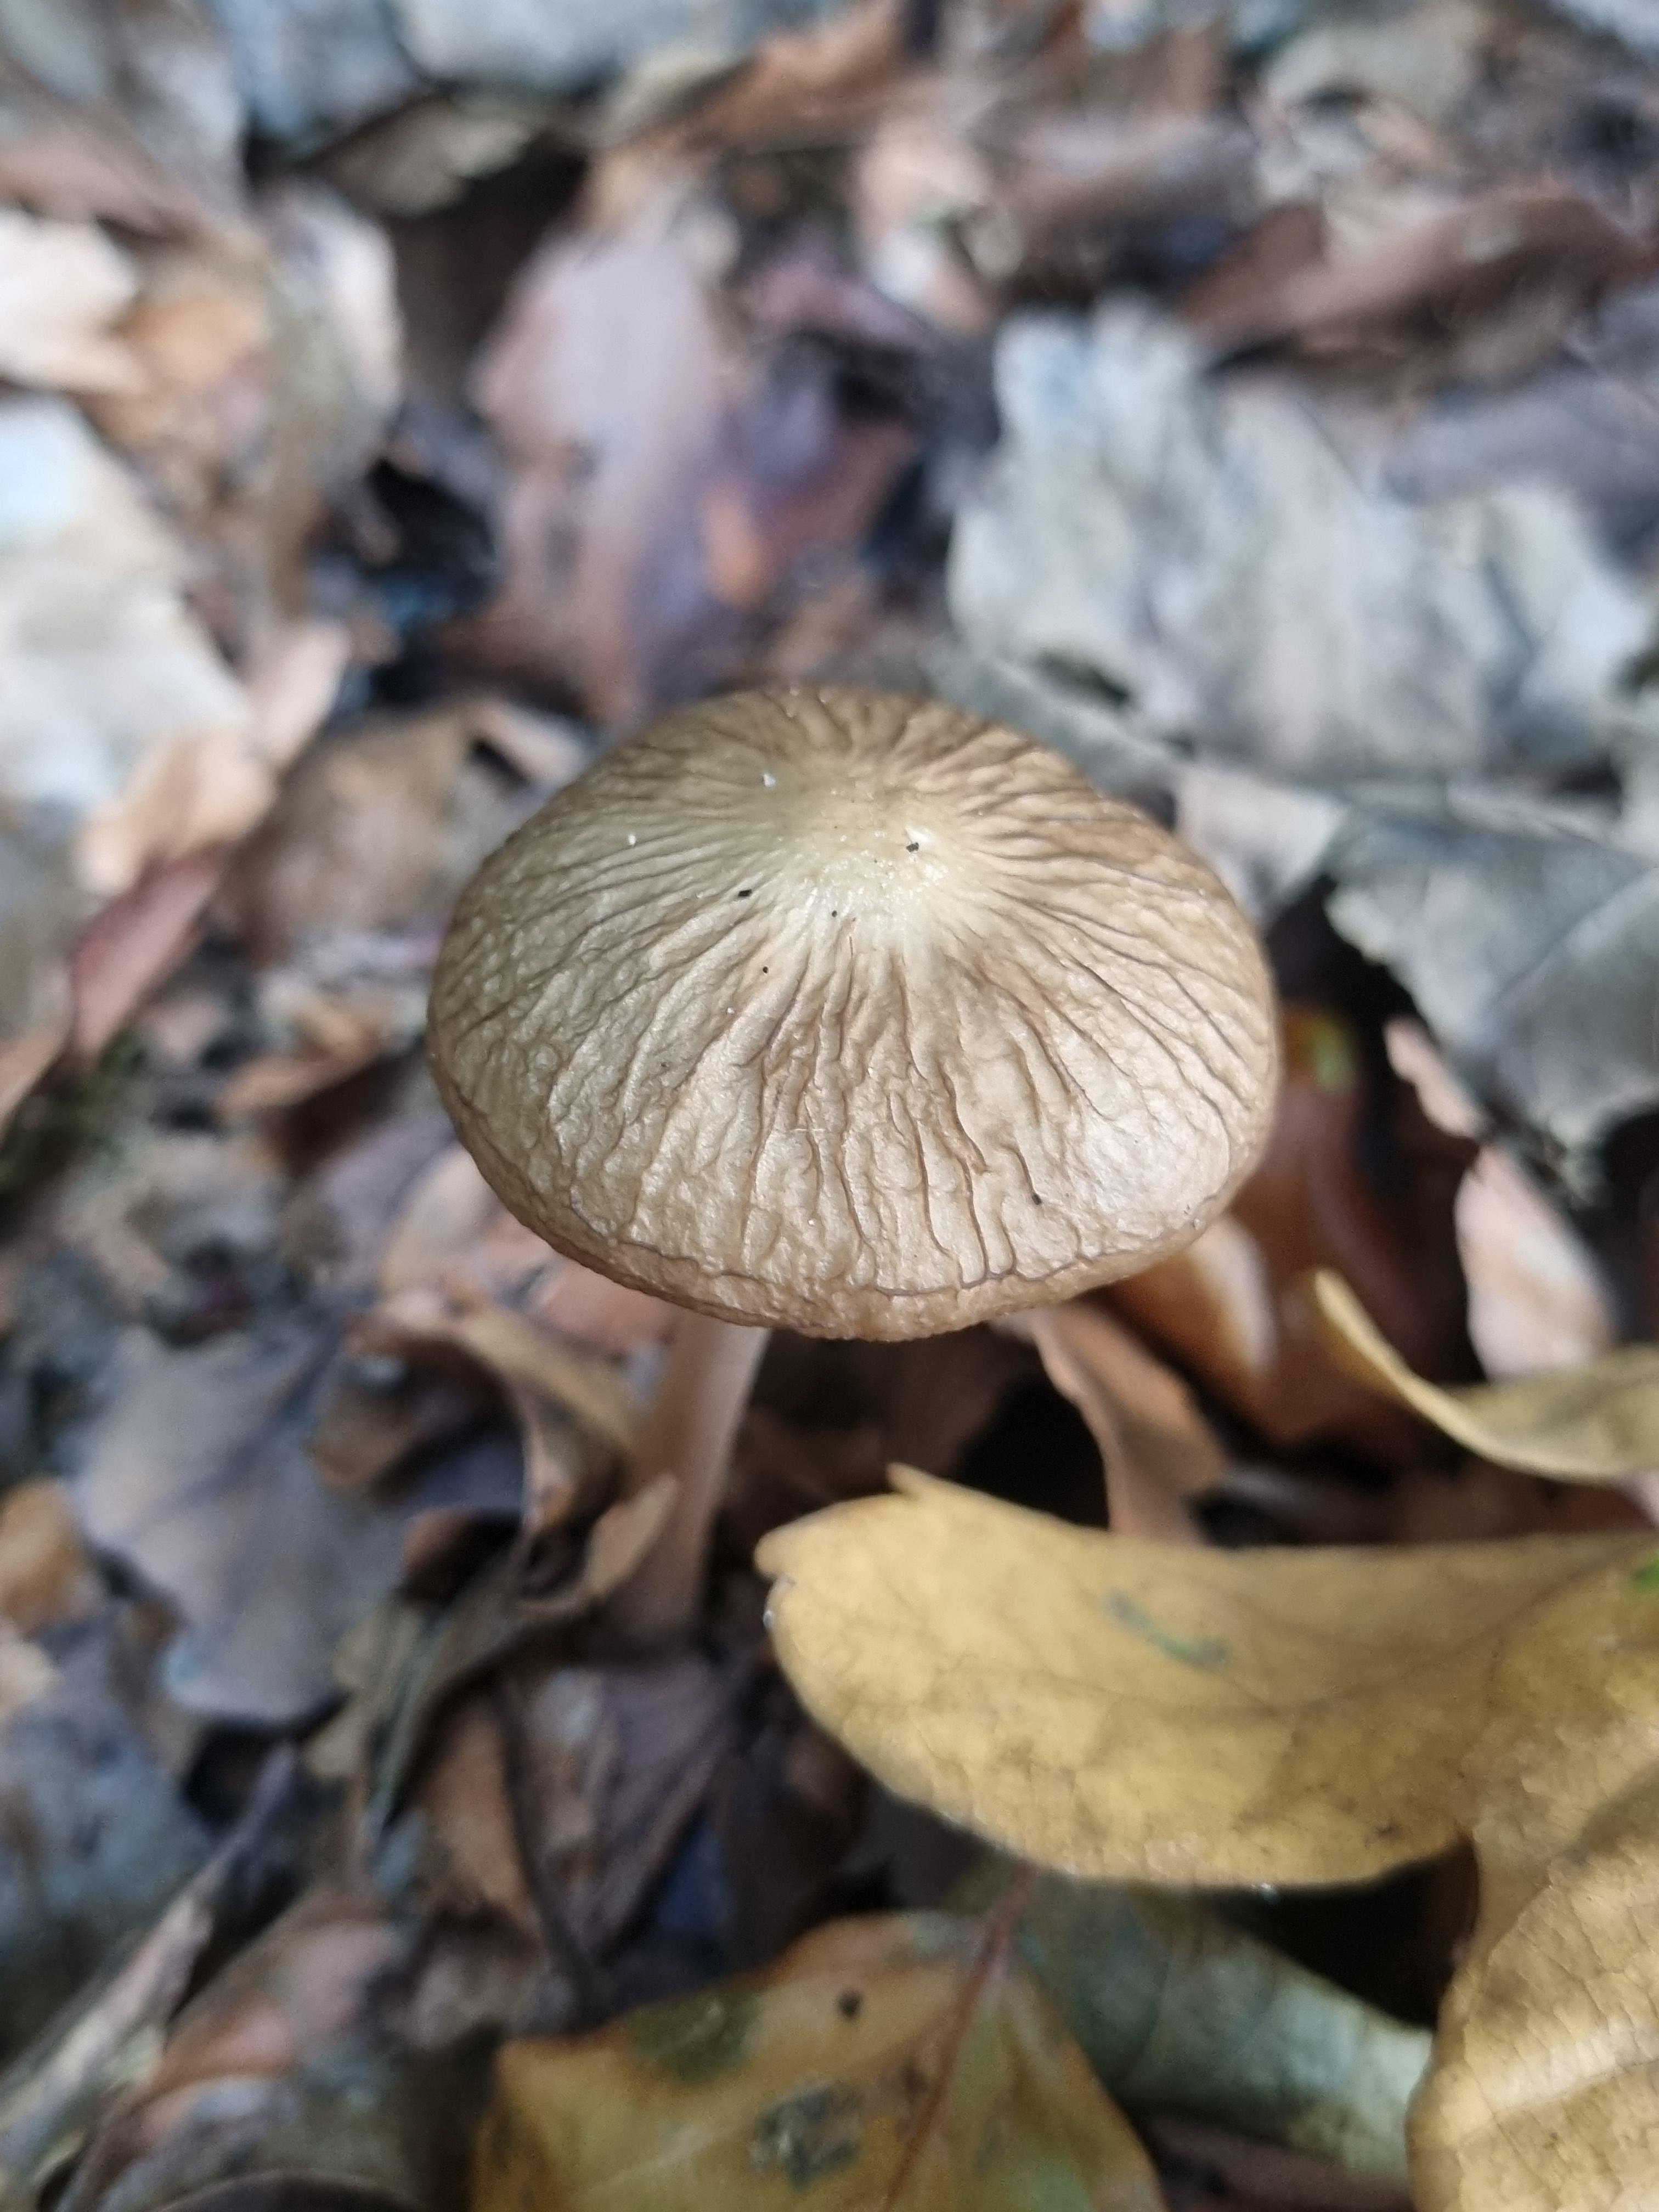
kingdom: Fungi
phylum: Basidiomycota
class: Agaricomycetes
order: Agaricales
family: Physalacriaceae
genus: Hymenopellis
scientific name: Hymenopellis radicata
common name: almindelig pælerodshat
